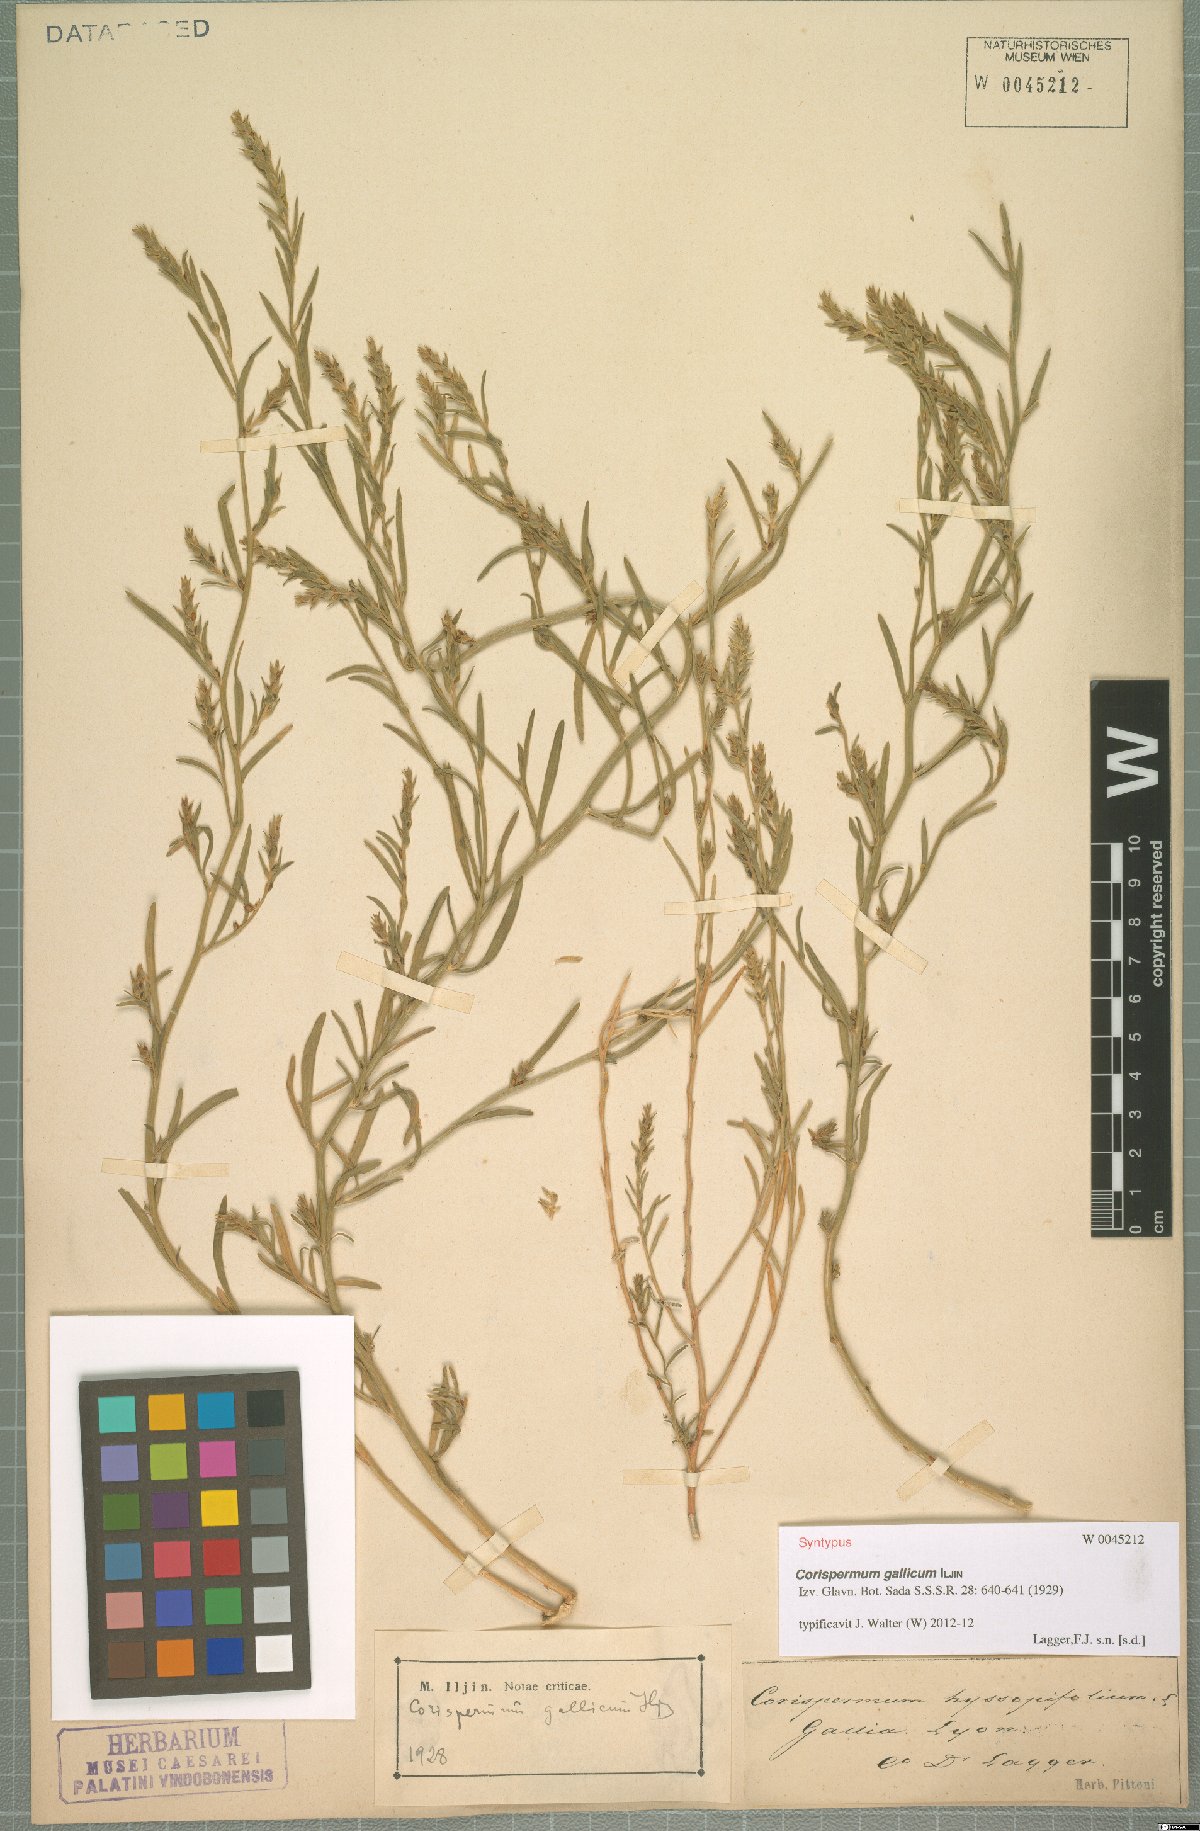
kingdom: Plantae
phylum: Tracheophyta
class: Magnoliopsida
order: Caryophyllales
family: Amaranthaceae
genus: Corispermum
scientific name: Corispermum gallicum
